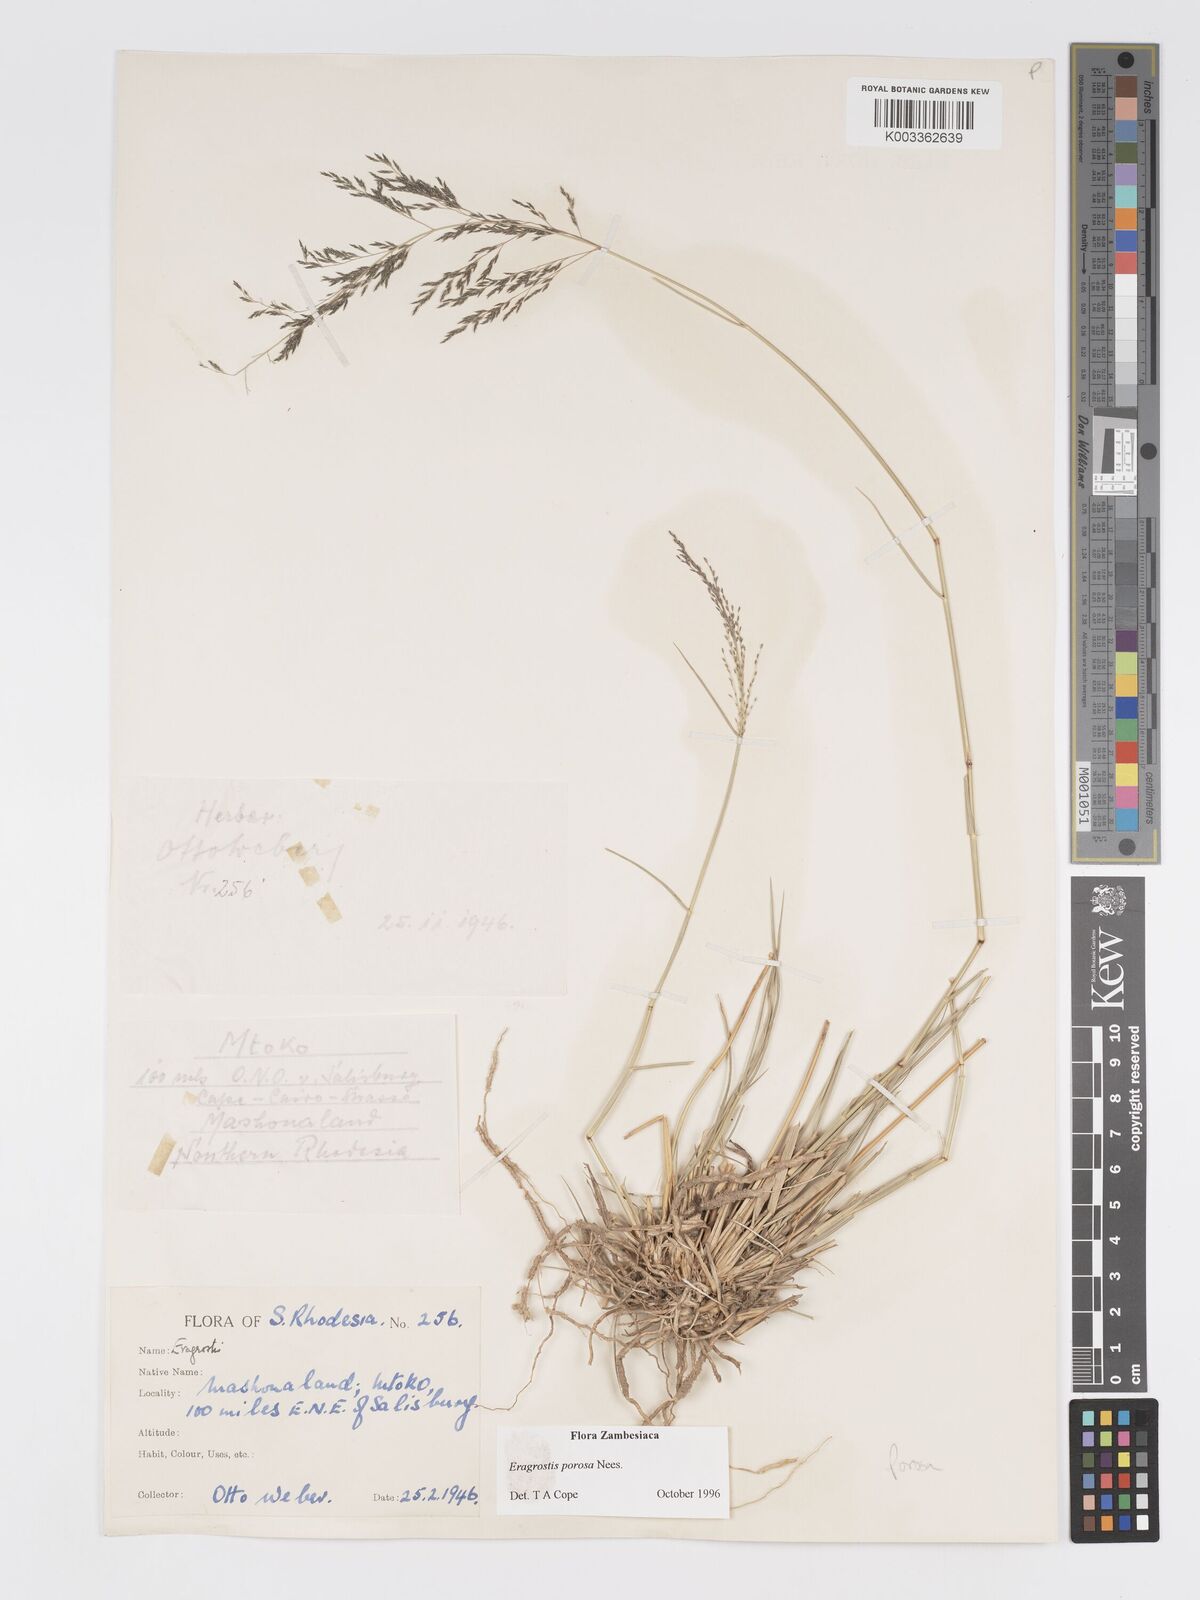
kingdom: Plantae
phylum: Tracheophyta
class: Liliopsida
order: Poales
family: Poaceae
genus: Eragrostis
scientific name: Eragrostis porosa
